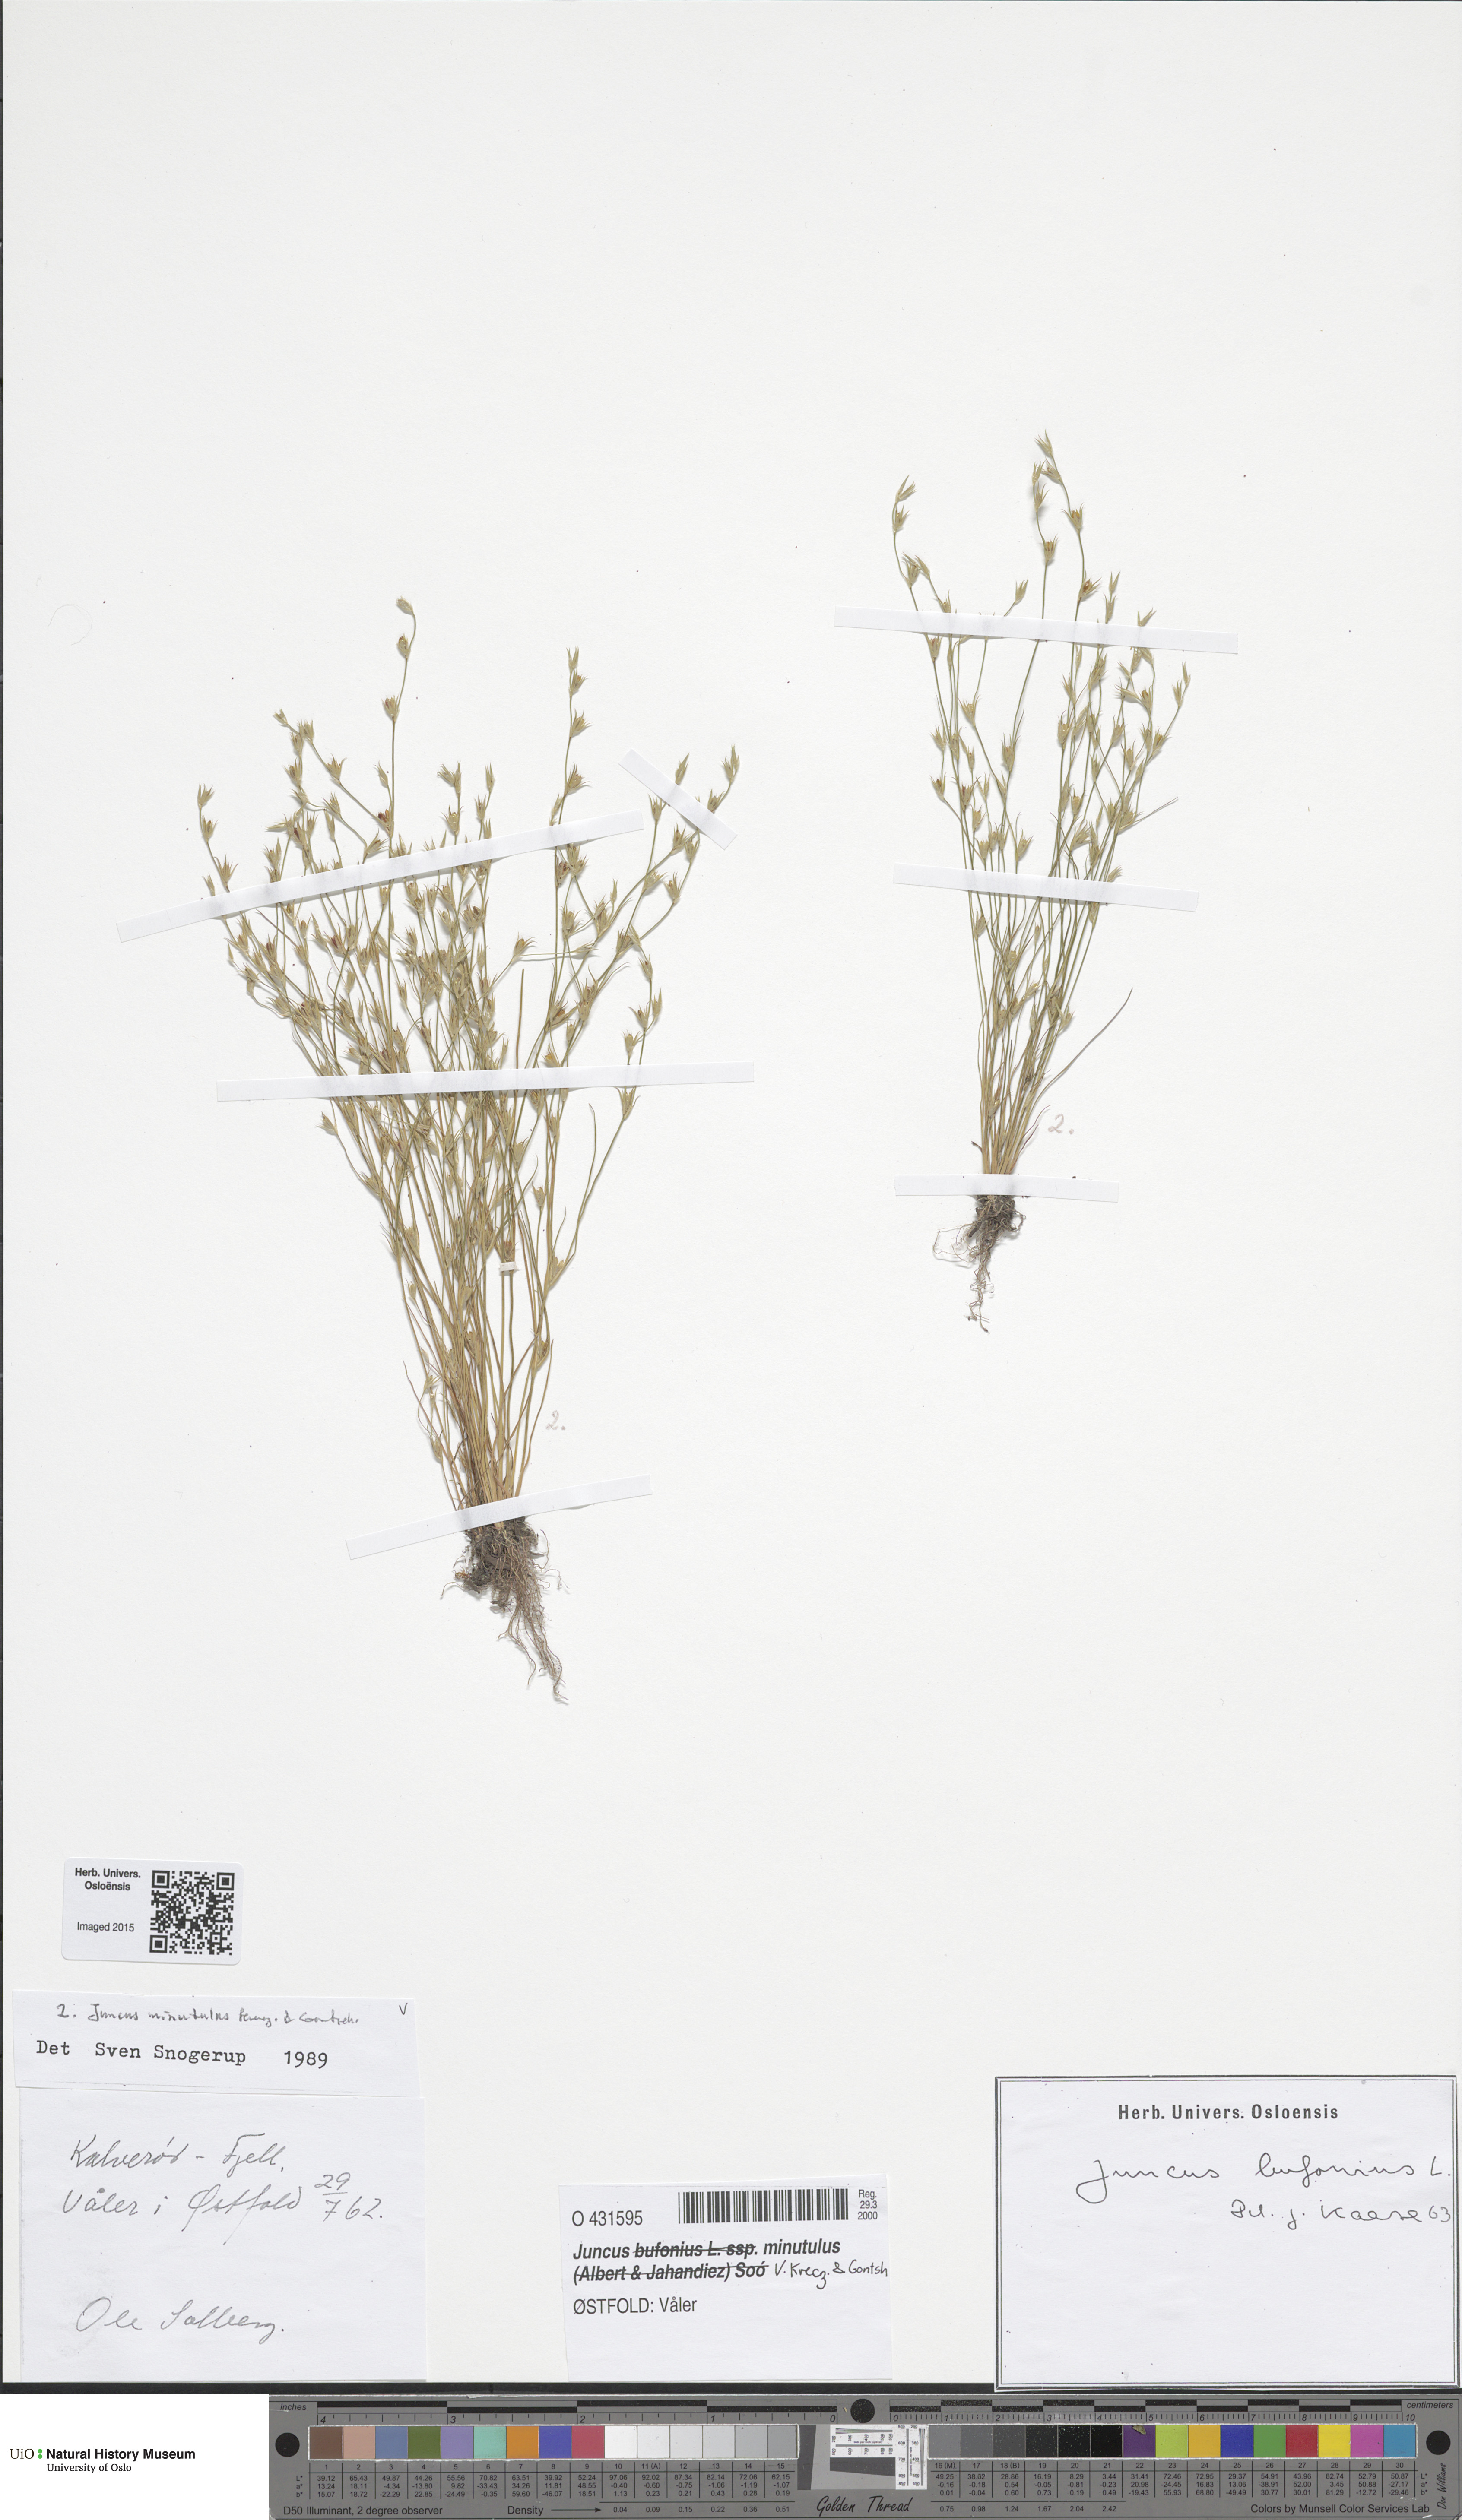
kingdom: Plantae
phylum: Tracheophyta
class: Liliopsida
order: Poales
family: Juncaceae
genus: Juncus
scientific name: Juncus minutulus
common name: Minute rush
